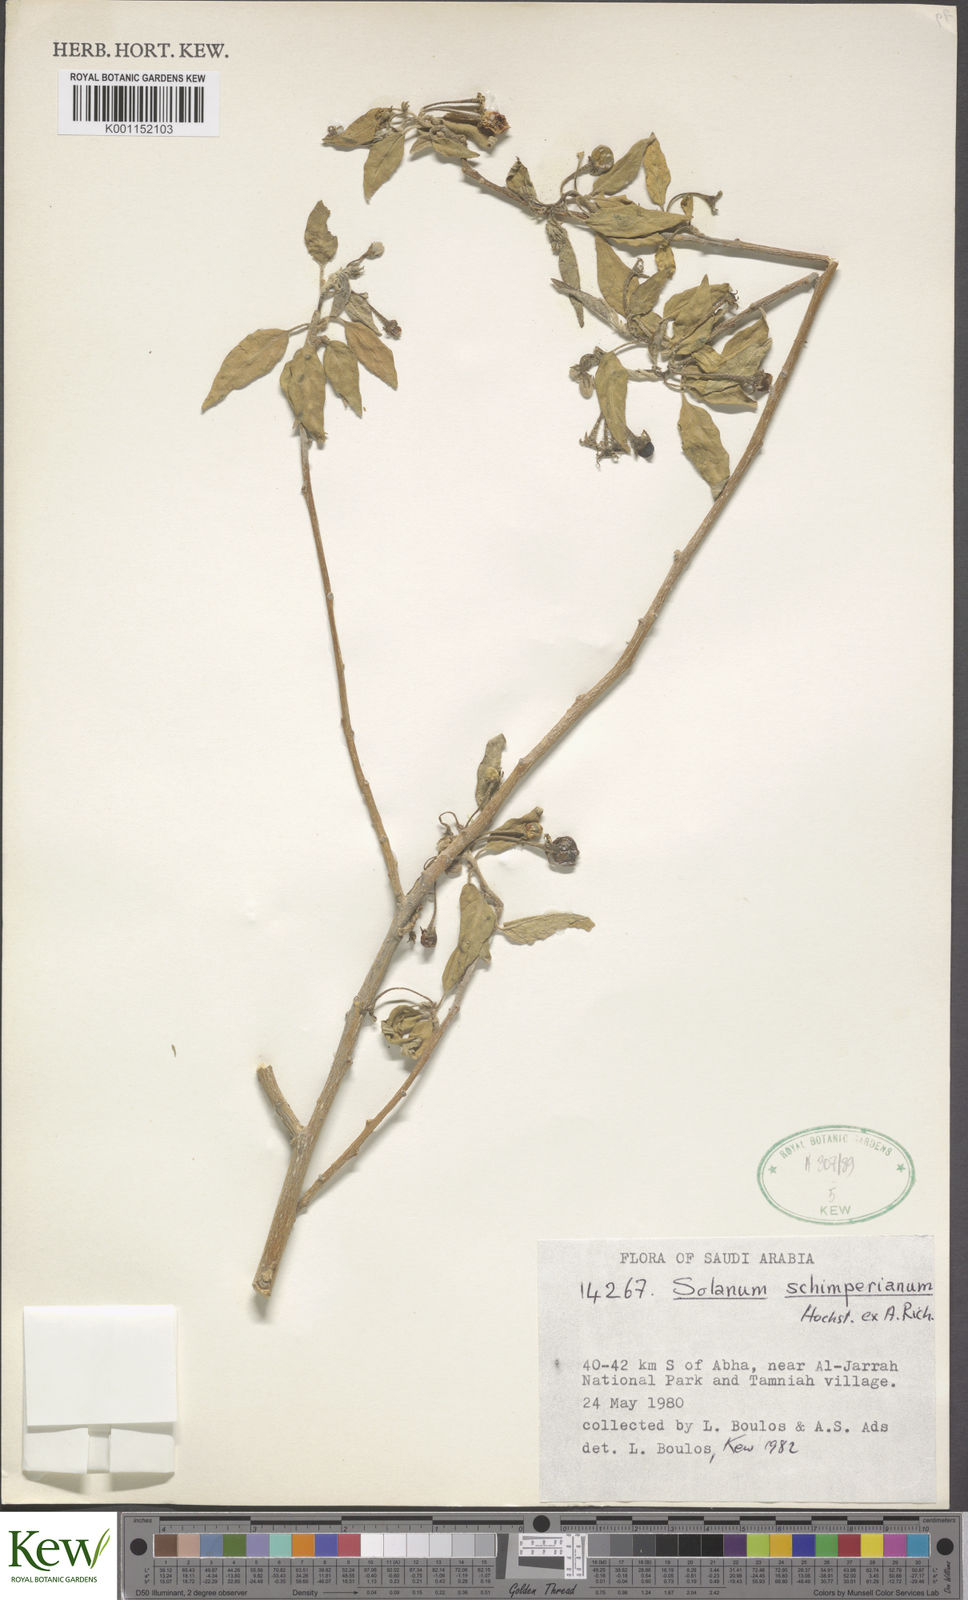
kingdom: Plantae
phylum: Tracheophyta
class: Magnoliopsida
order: Solanales
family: Solanaceae
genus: Solanum
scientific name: Solanum
